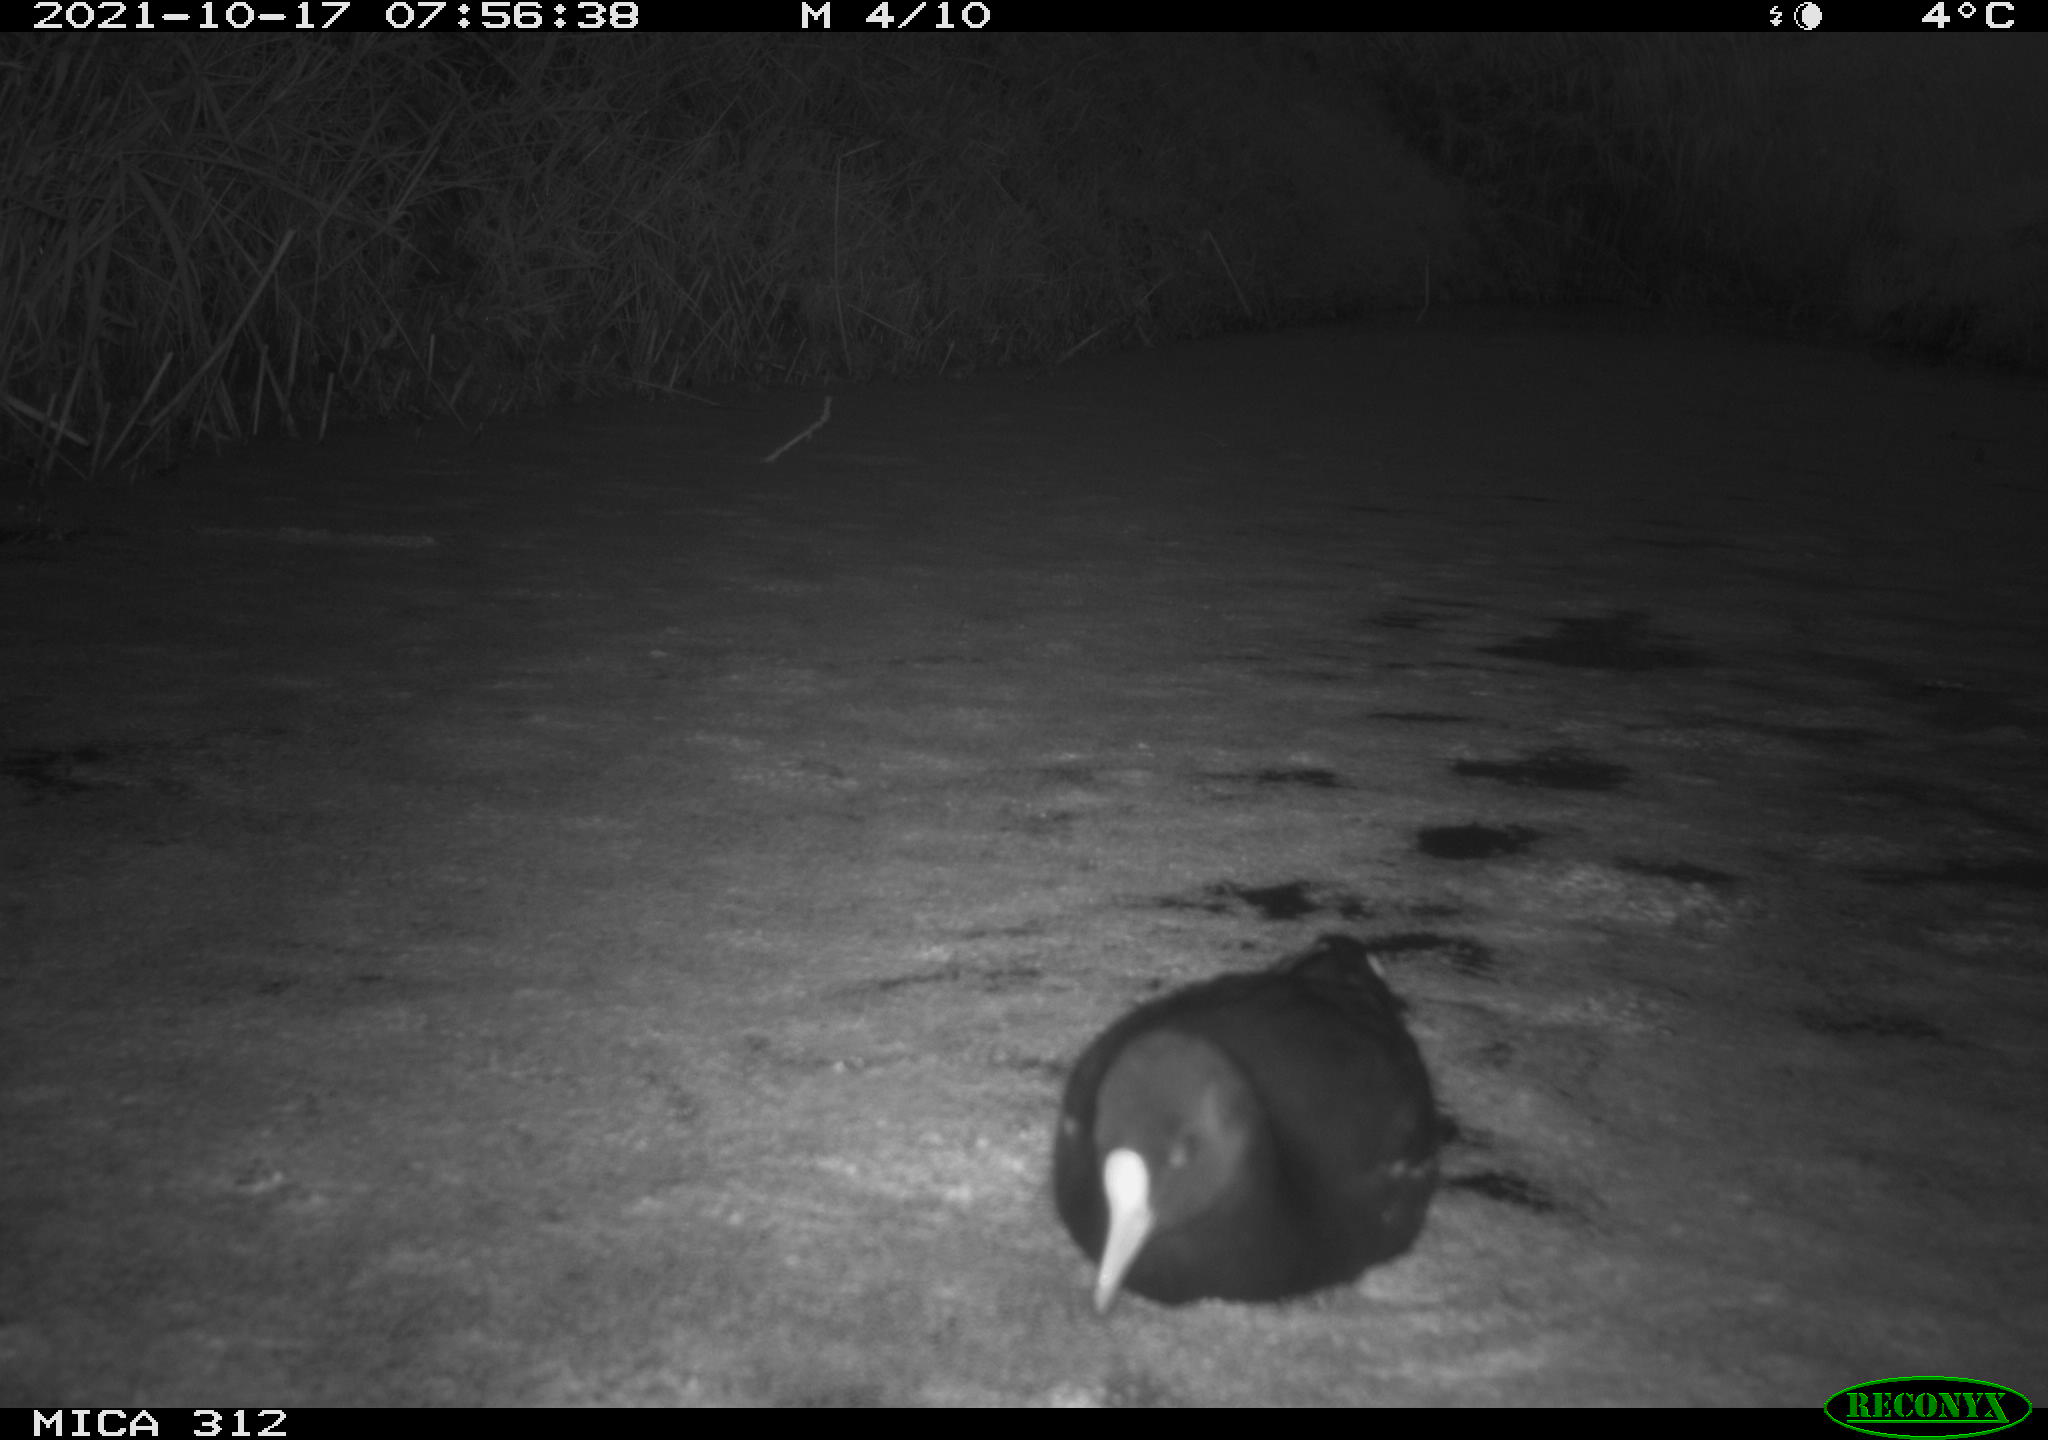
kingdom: Animalia
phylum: Chordata
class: Aves
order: Gruiformes
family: Rallidae
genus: Gallinula
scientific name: Gallinula chloropus
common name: Common moorhen
